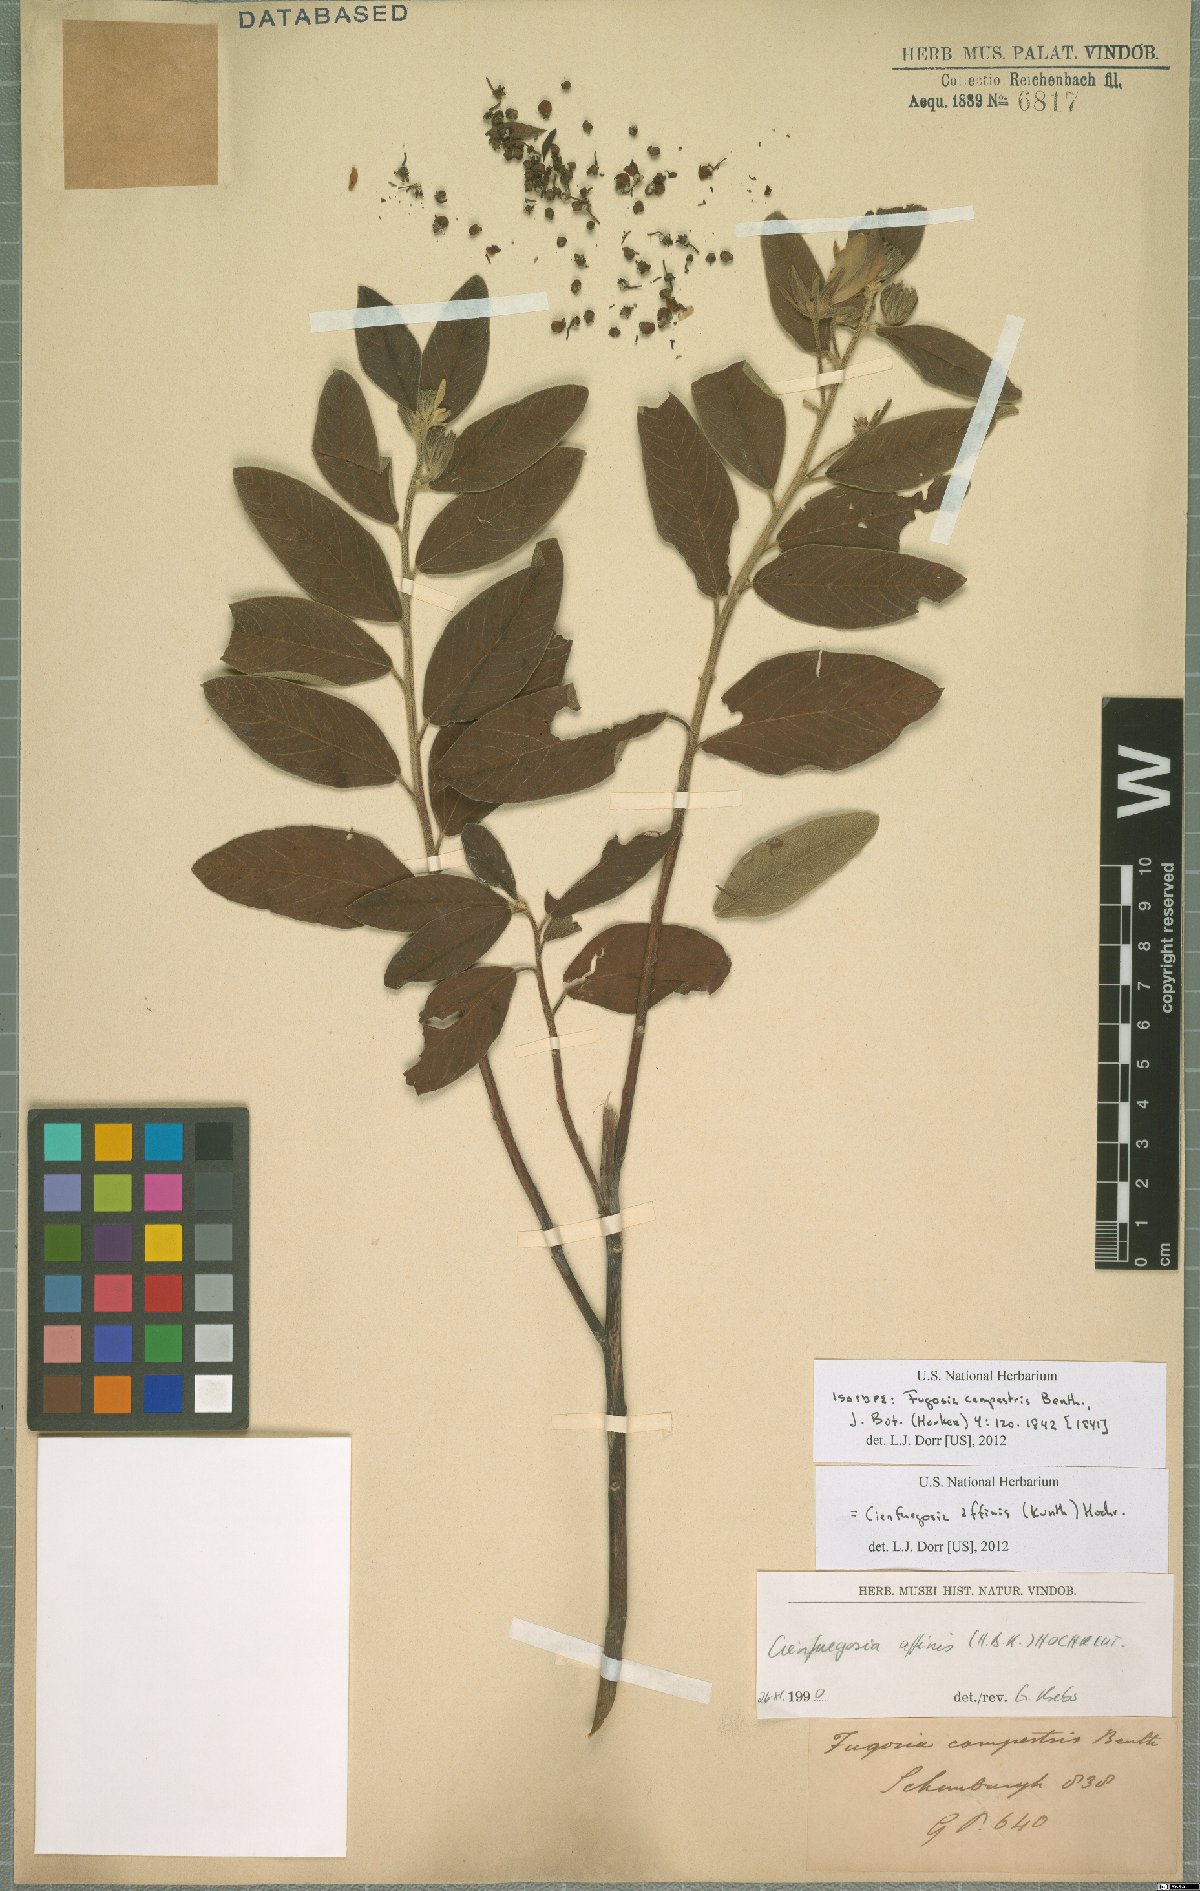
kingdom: Plantae
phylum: Tracheophyta
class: Magnoliopsida
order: Malvales
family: Malvaceae
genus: Cienfuegosia
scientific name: Cienfuegosia affinis
